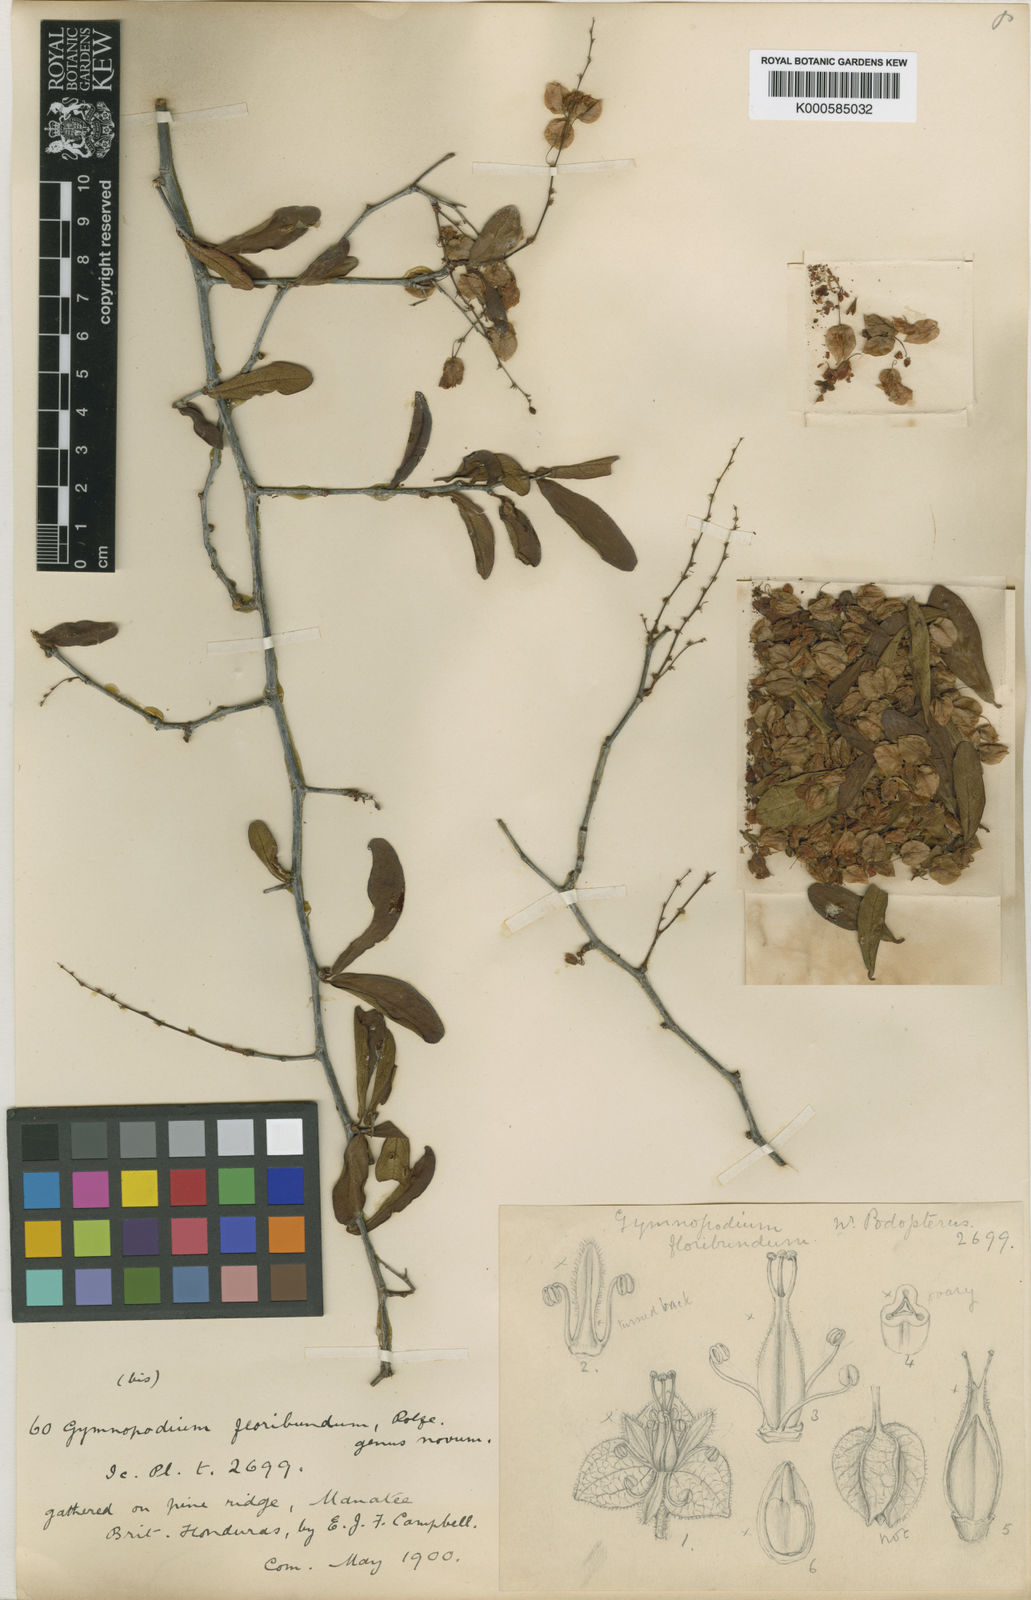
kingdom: Plantae
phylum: Tracheophyta
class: Magnoliopsida
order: Caryophyllales
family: Polygonaceae
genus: Gymnopodium
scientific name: Gymnopodium floribundum
